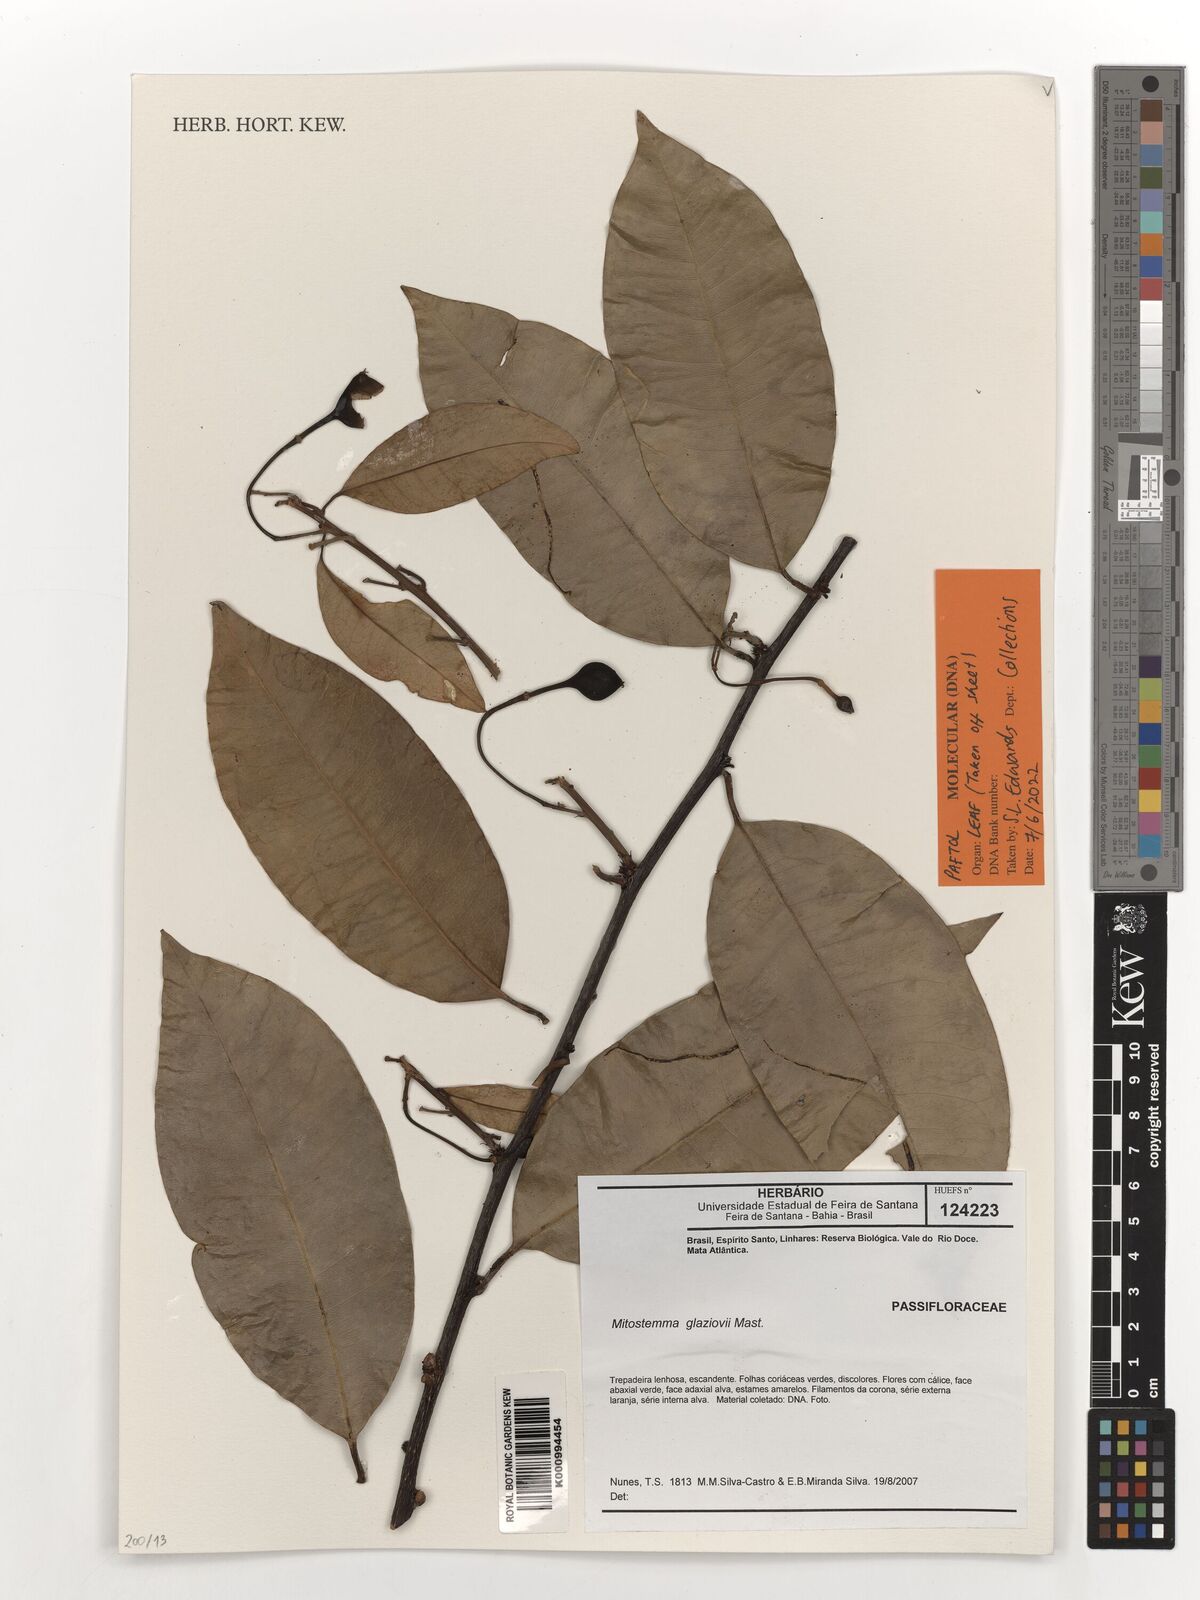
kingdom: Plantae
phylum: Tracheophyta
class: Magnoliopsida
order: Malpighiales
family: Passifloraceae
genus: Mitostemma
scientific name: Mitostemma glaziovii
